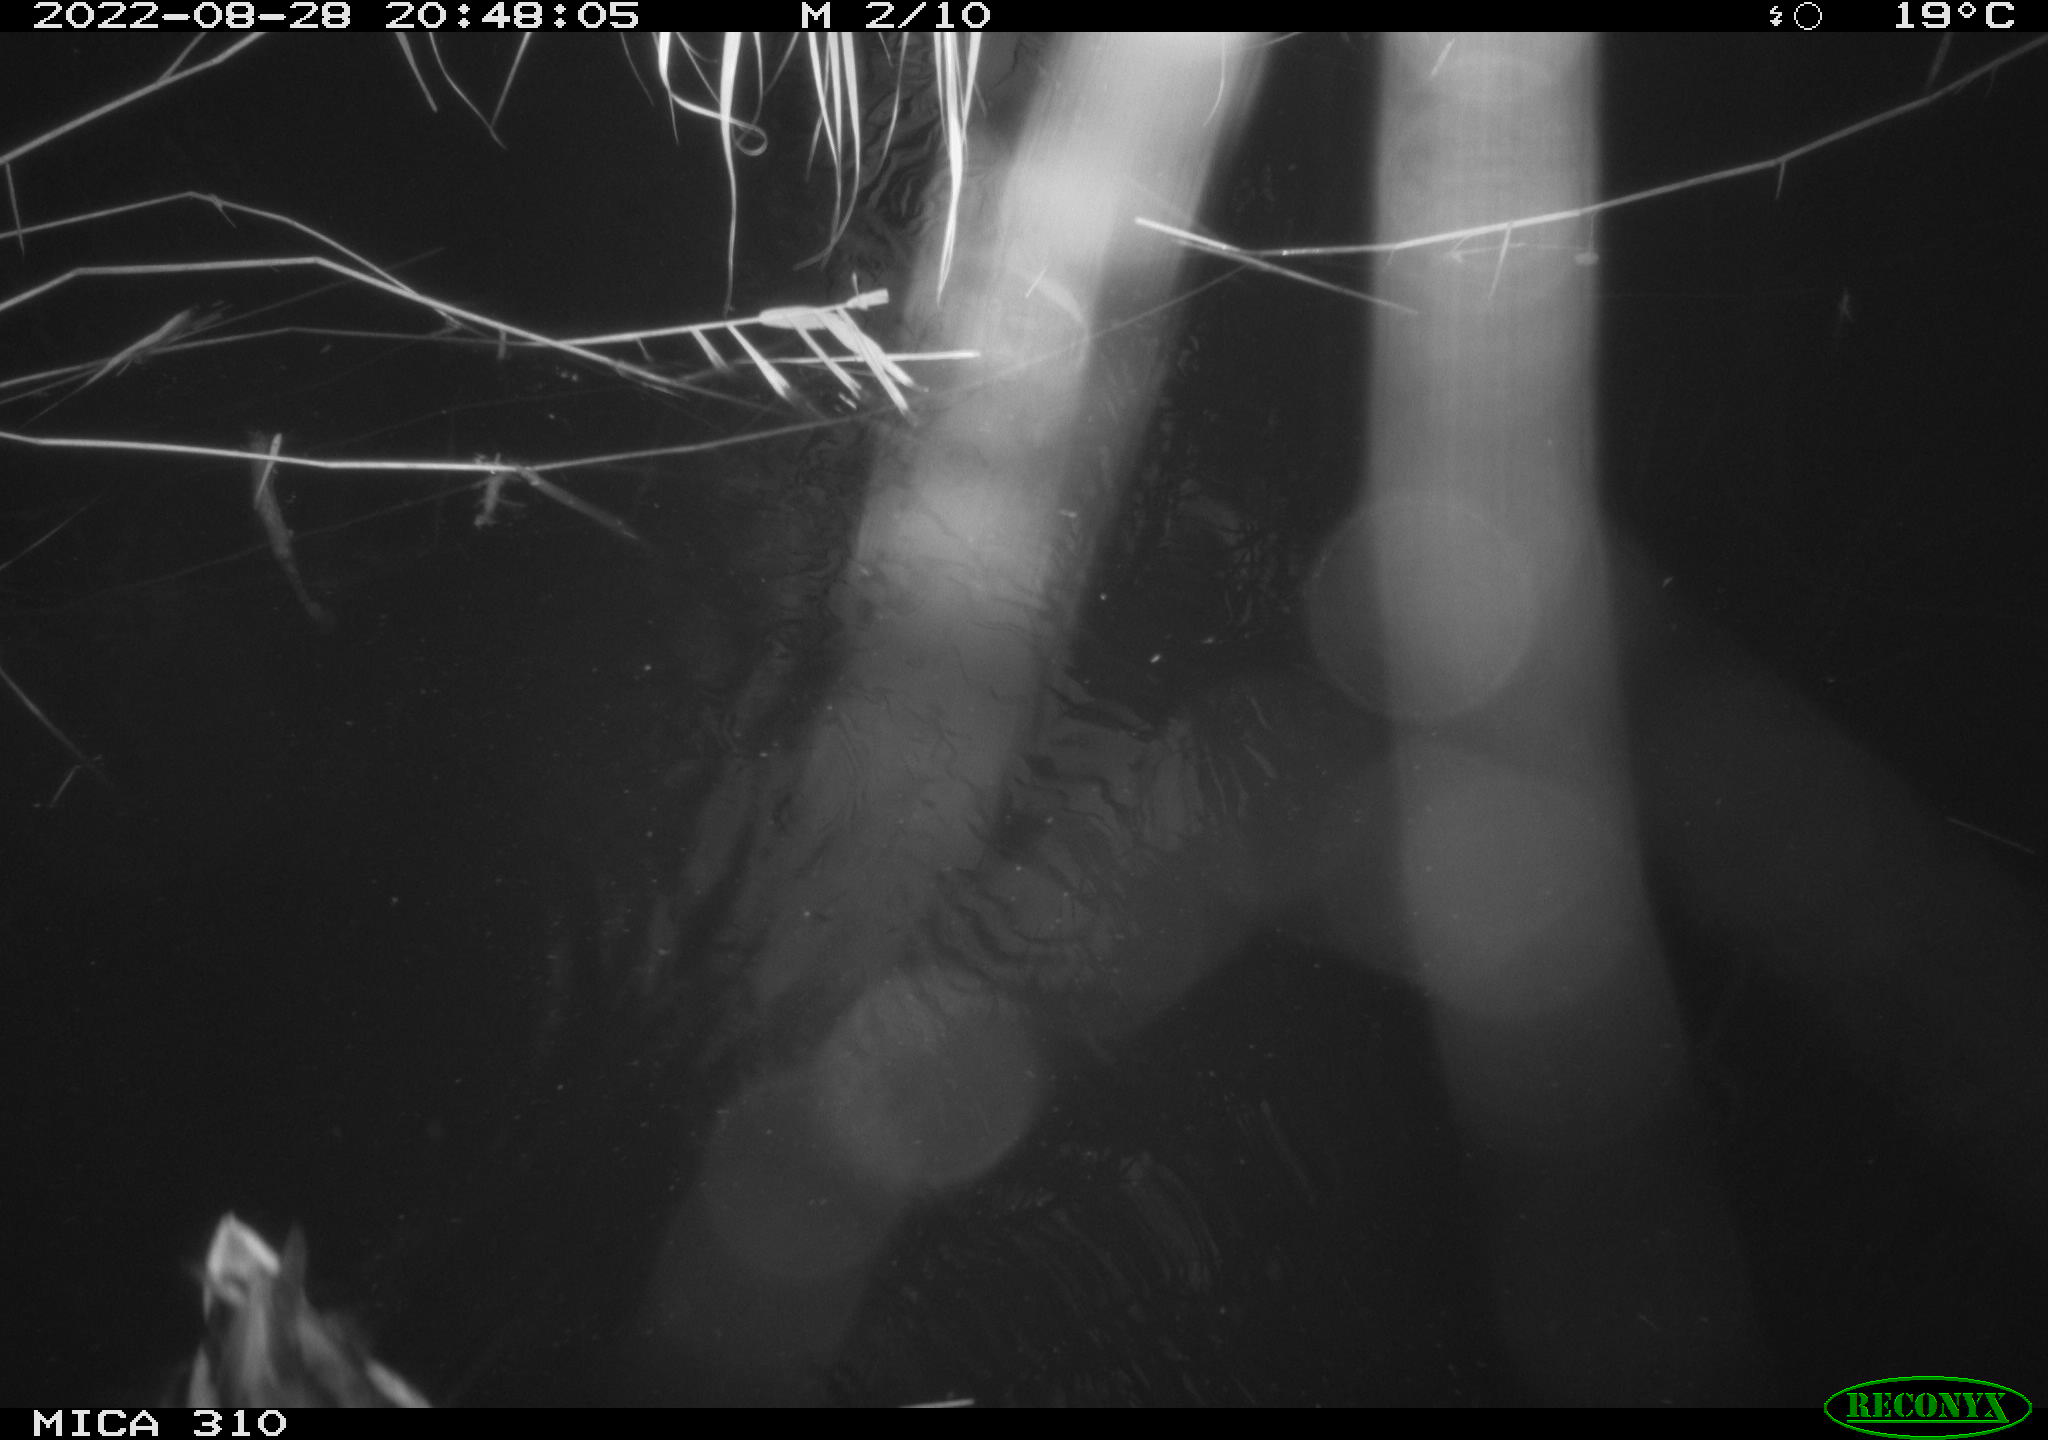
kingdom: Animalia
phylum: Chordata
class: Aves
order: Anseriformes
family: Anatidae
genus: Anas
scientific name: Anas platyrhynchos
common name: Mallard
